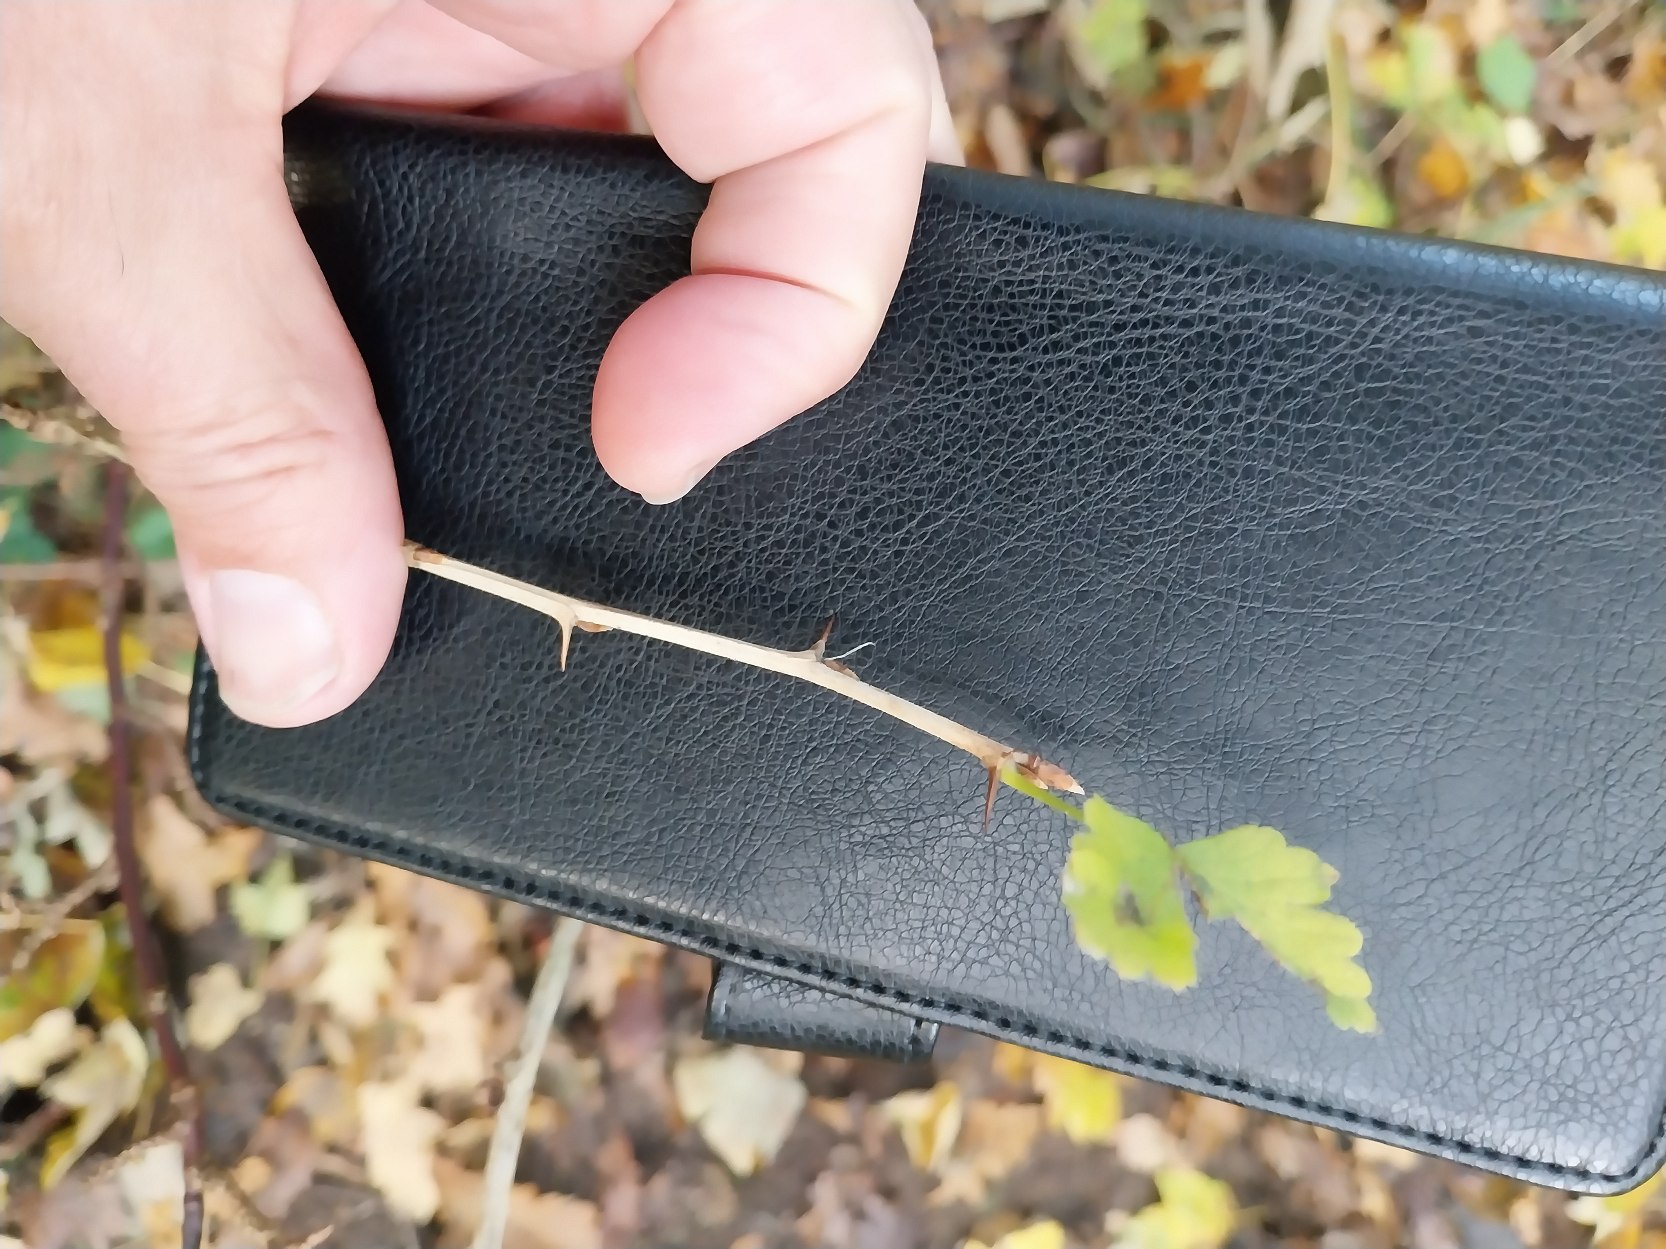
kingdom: Plantae
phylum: Tracheophyta
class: Magnoliopsida
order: Saxifragales
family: Grossulariaceae
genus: Ribes
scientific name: Ribes uva-crispa
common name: Stikkelsbær
